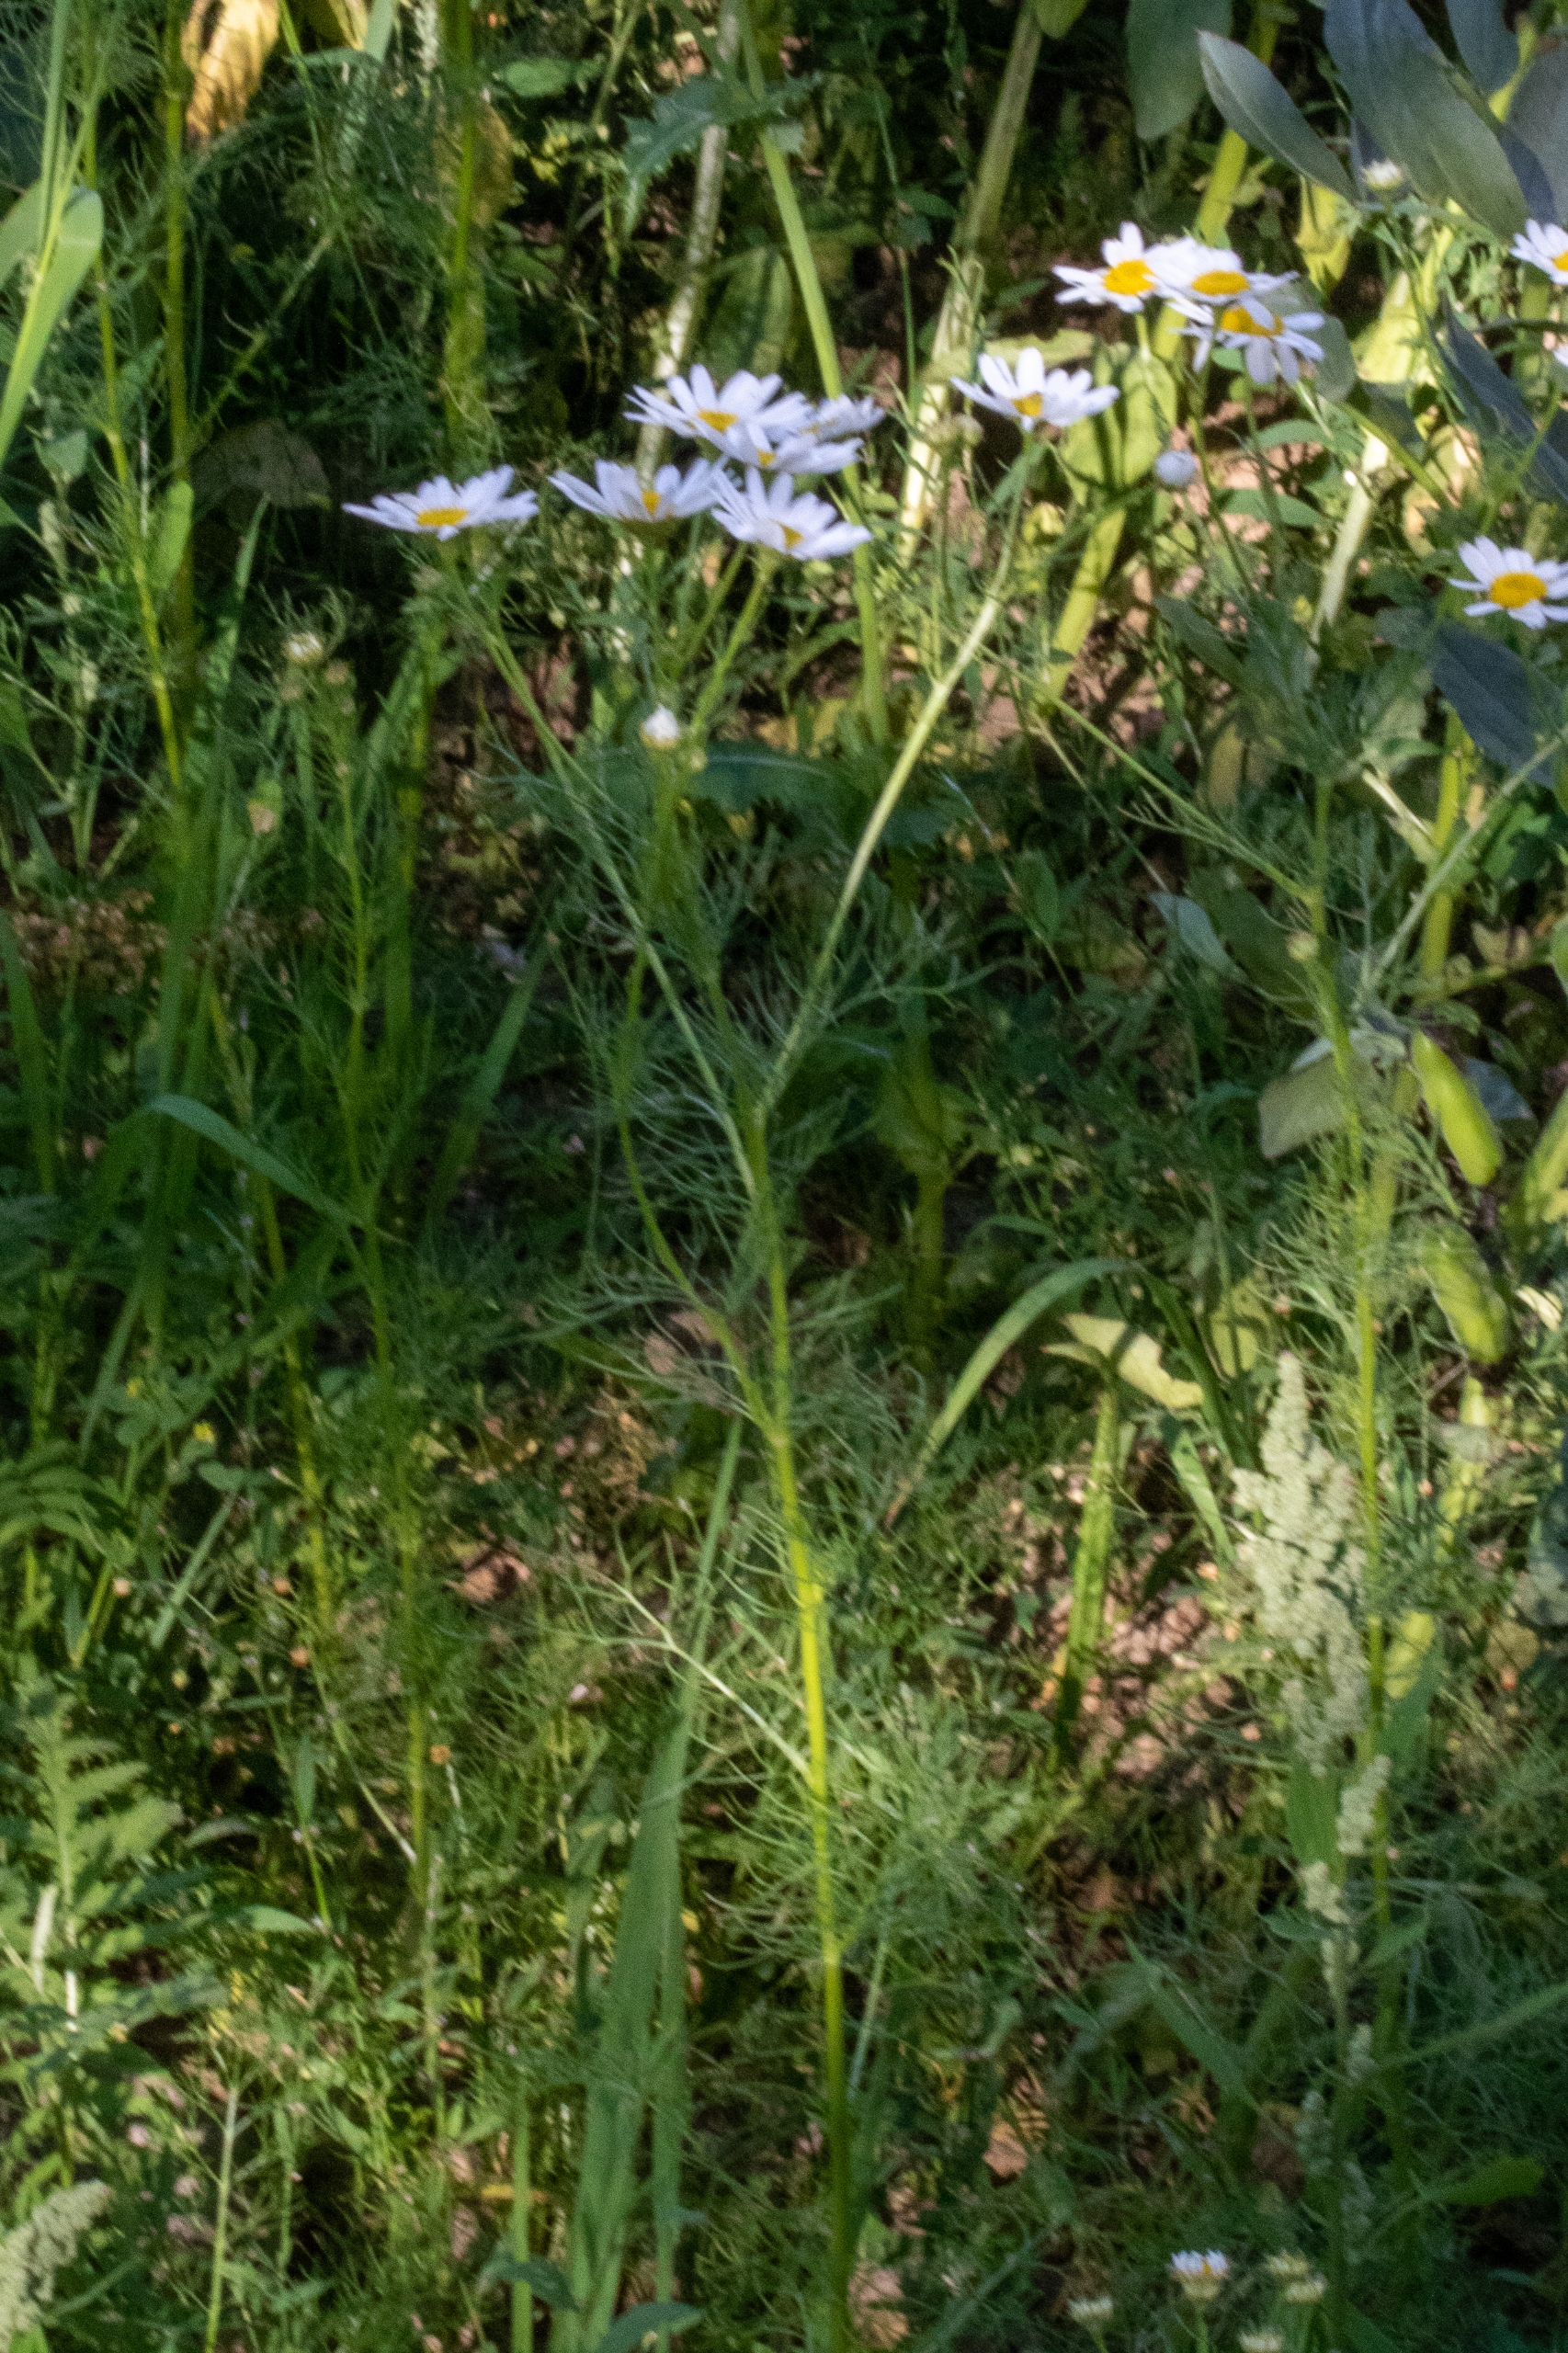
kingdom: Plantae
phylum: Tracheophyta
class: Magnoliopsida
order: Asterales
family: Asteraceae
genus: Tripleurospermum
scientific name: Tripleurospermum inodorum
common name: Lugtløs kamille
